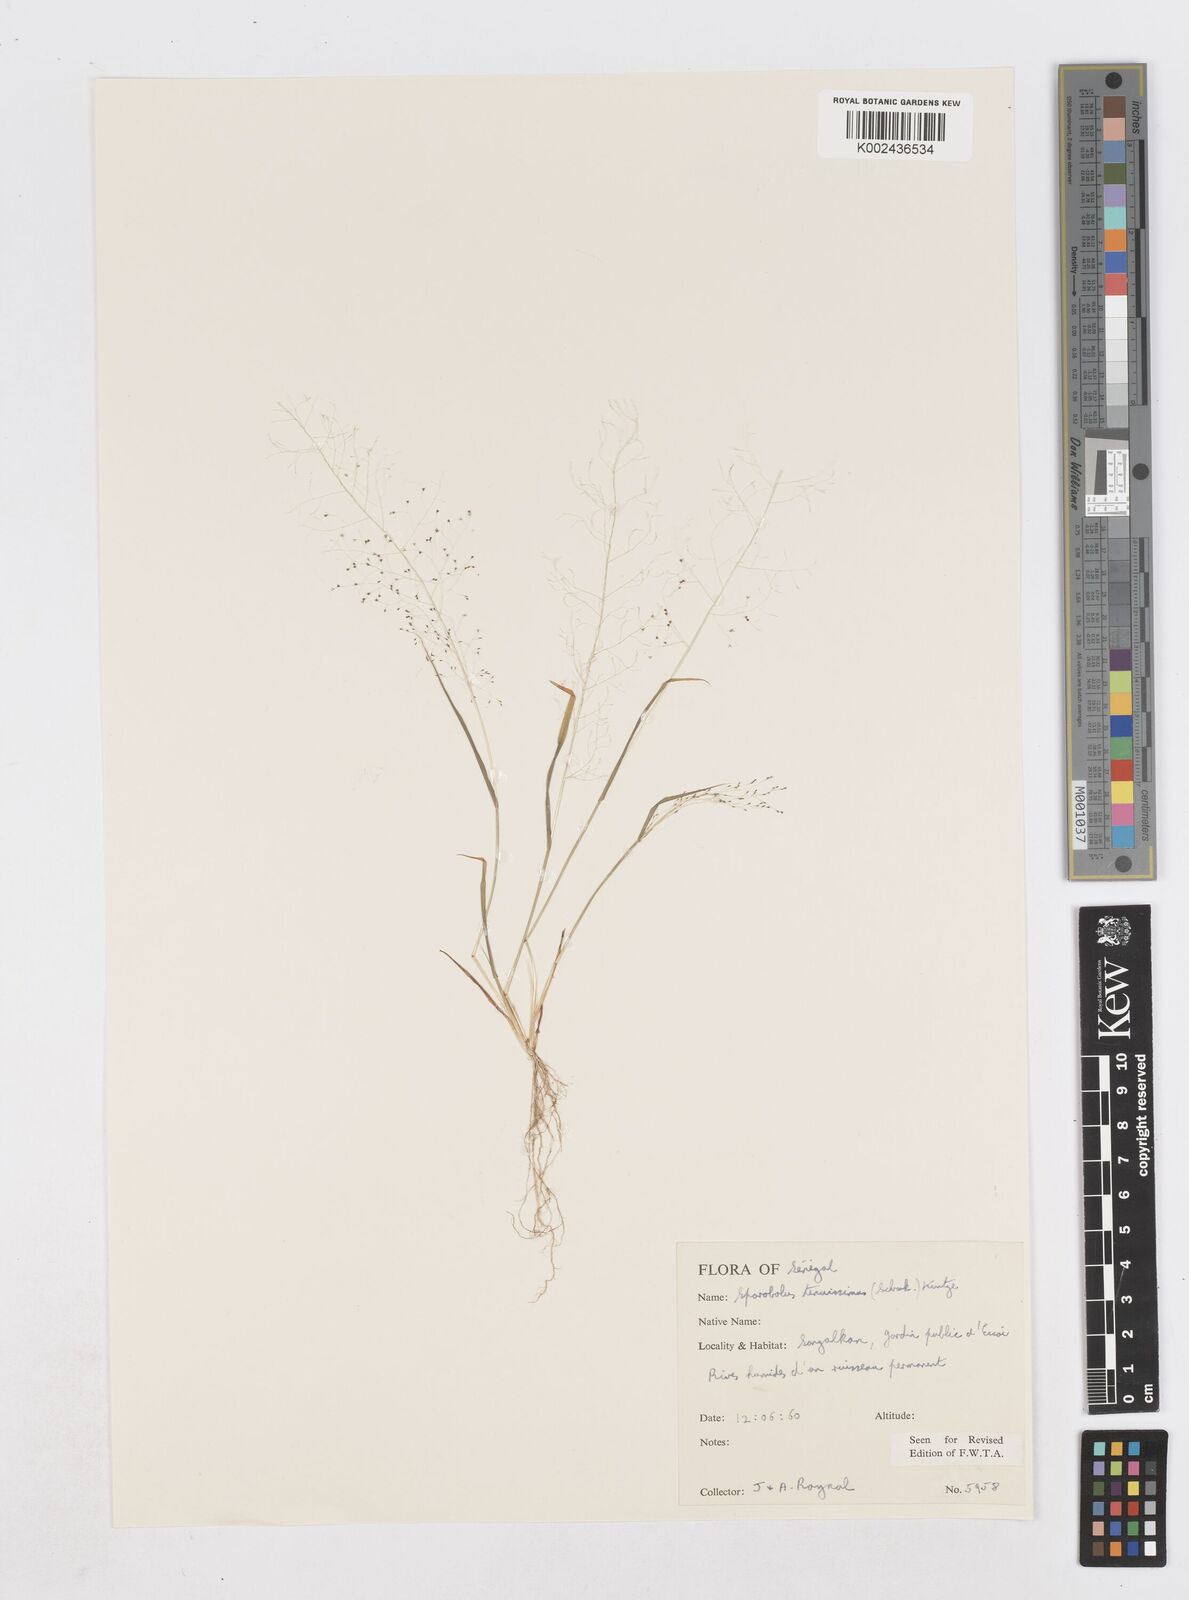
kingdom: Plantae
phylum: Tracheophyta
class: Liliopsida
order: Poales
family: Poaceae
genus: Sporobolus
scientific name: Sporobolus tenuissimus
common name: Tropical dropseed
